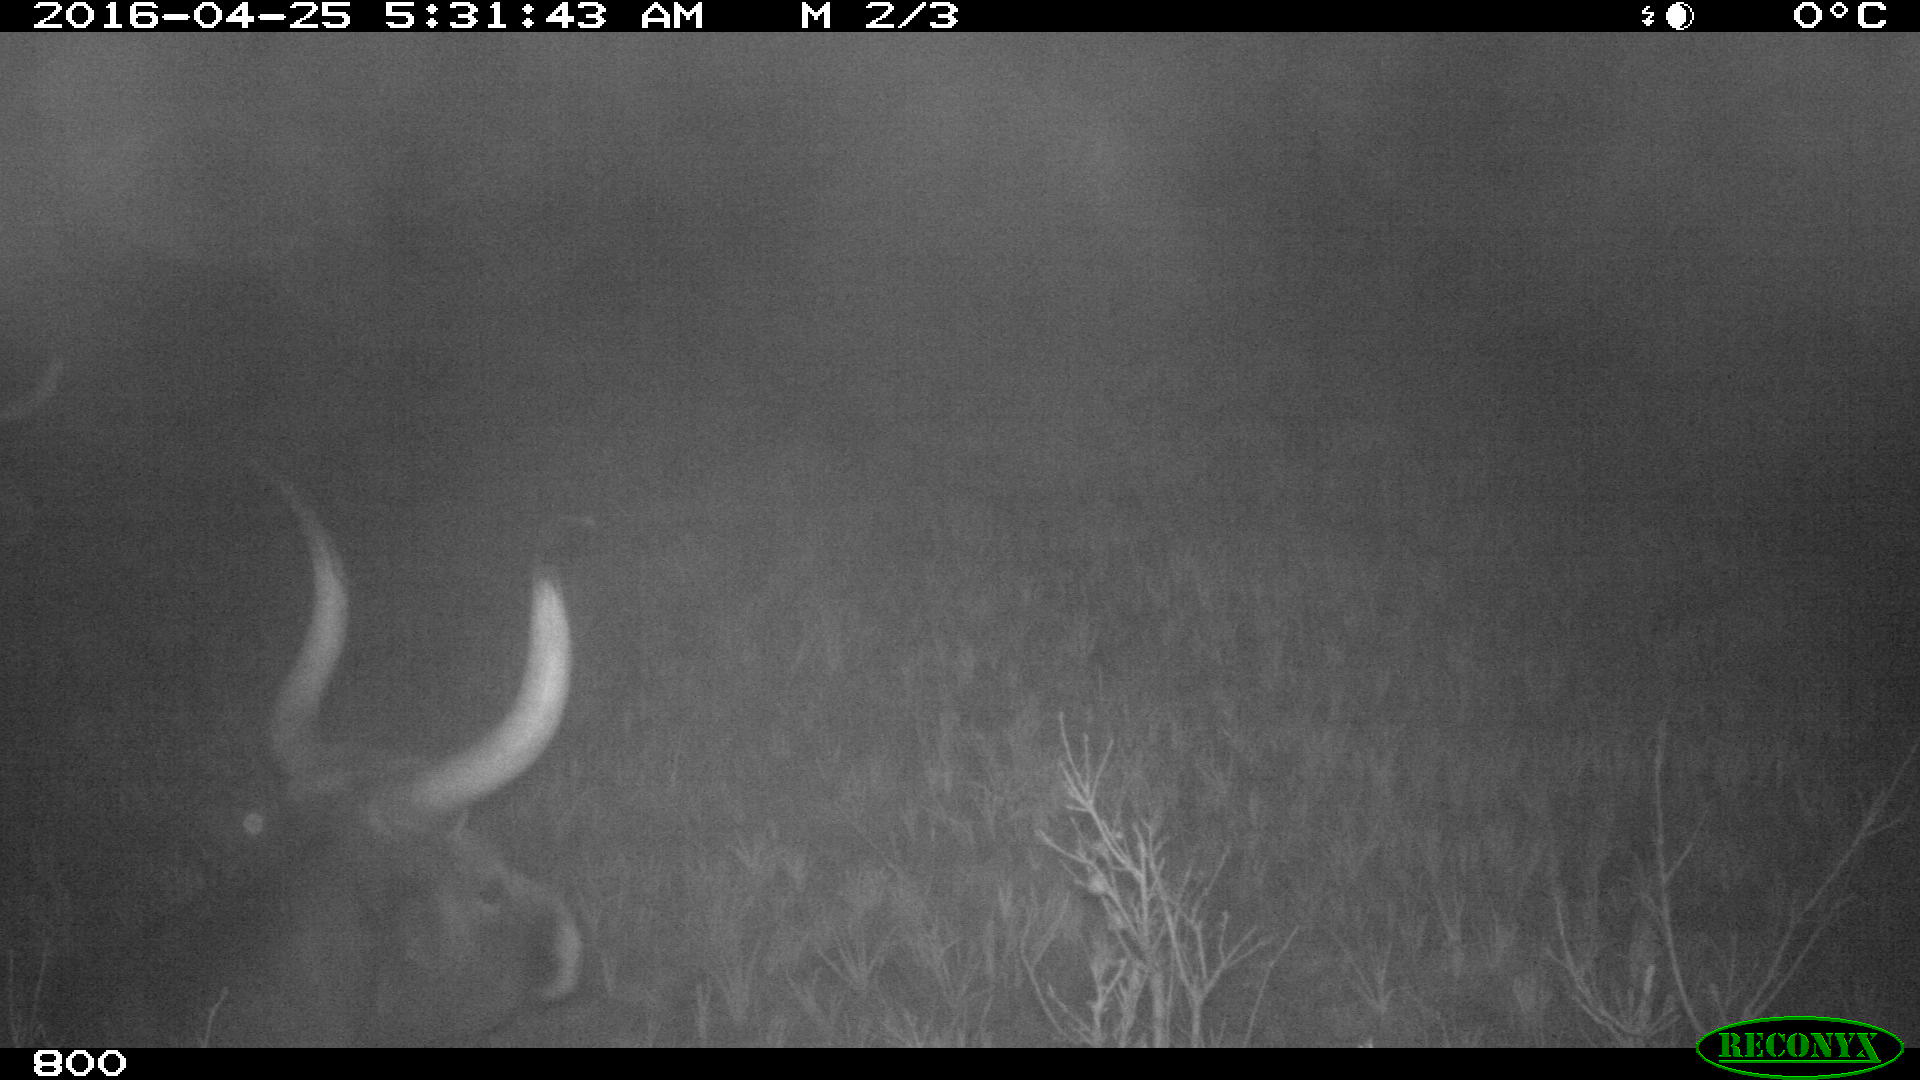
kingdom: Animalia
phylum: Chordata
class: Mammalia
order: Artiodactyla
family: Bovidae
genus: Bos
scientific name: Bos taurus
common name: Domesticated cattle
